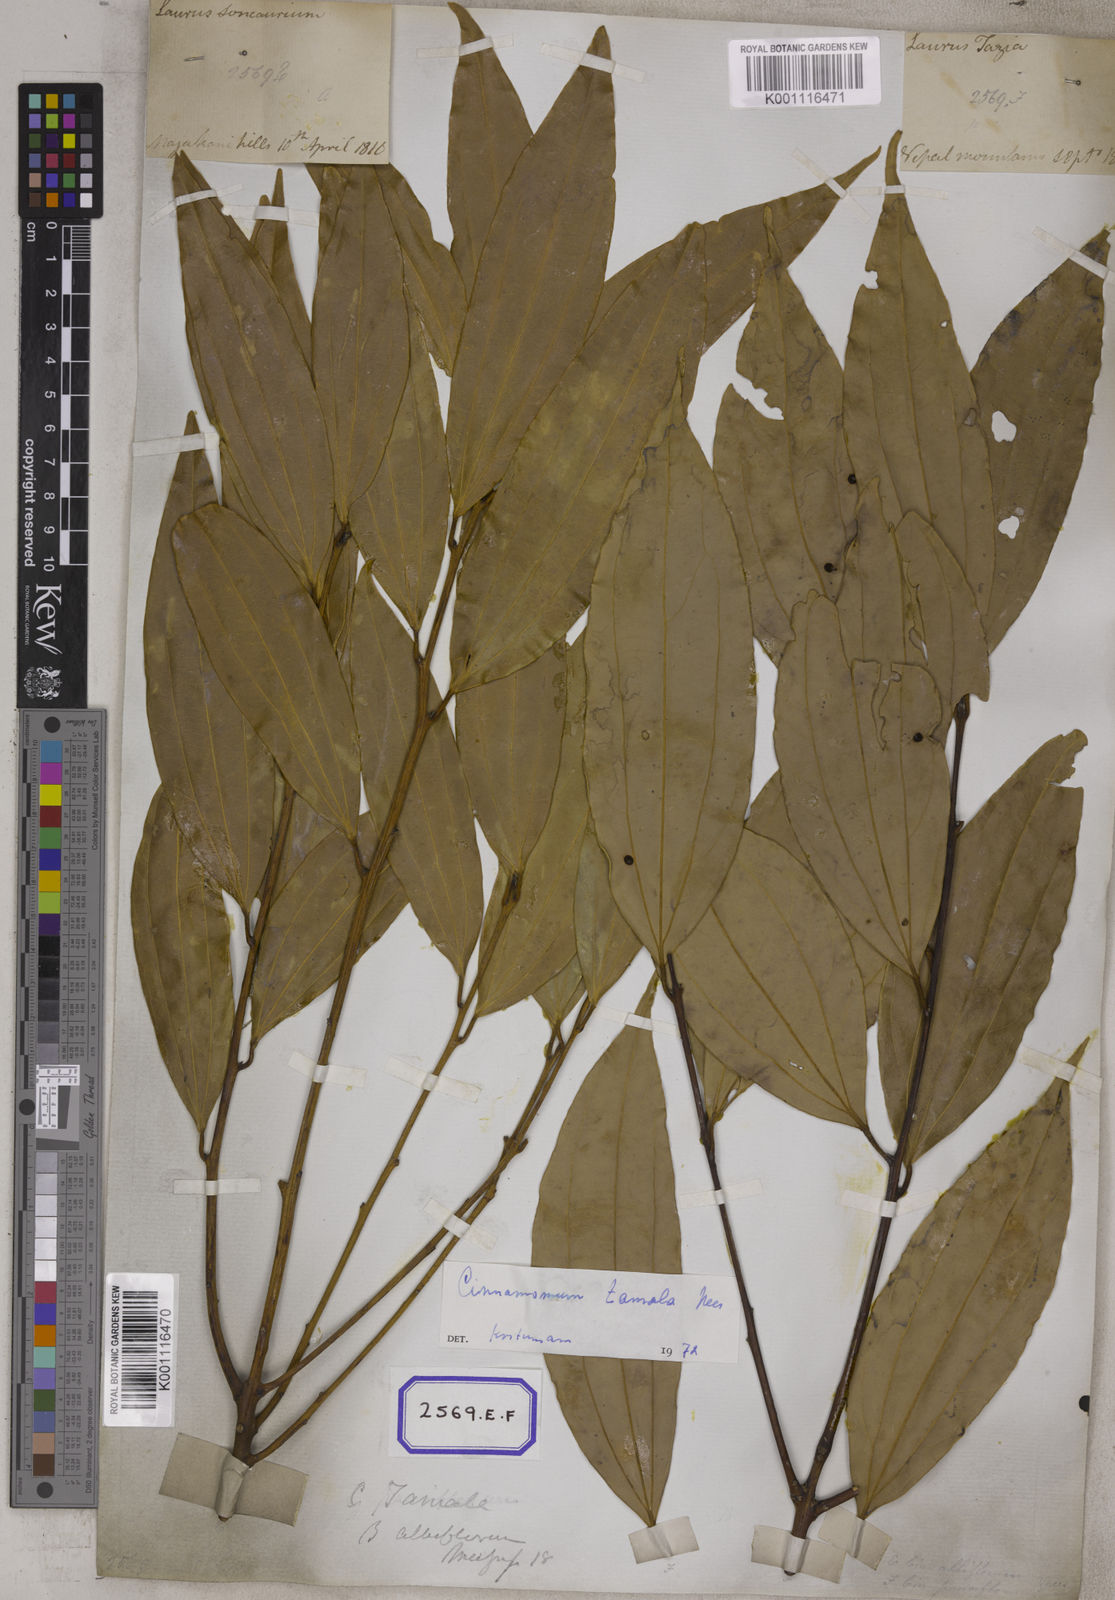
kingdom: Plantae
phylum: Tracheophyta
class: Magnoliopsida
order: Laurales
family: Lauraceae
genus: Cinnamomum
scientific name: Cinnamomum tamala
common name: Indian bay leaves
